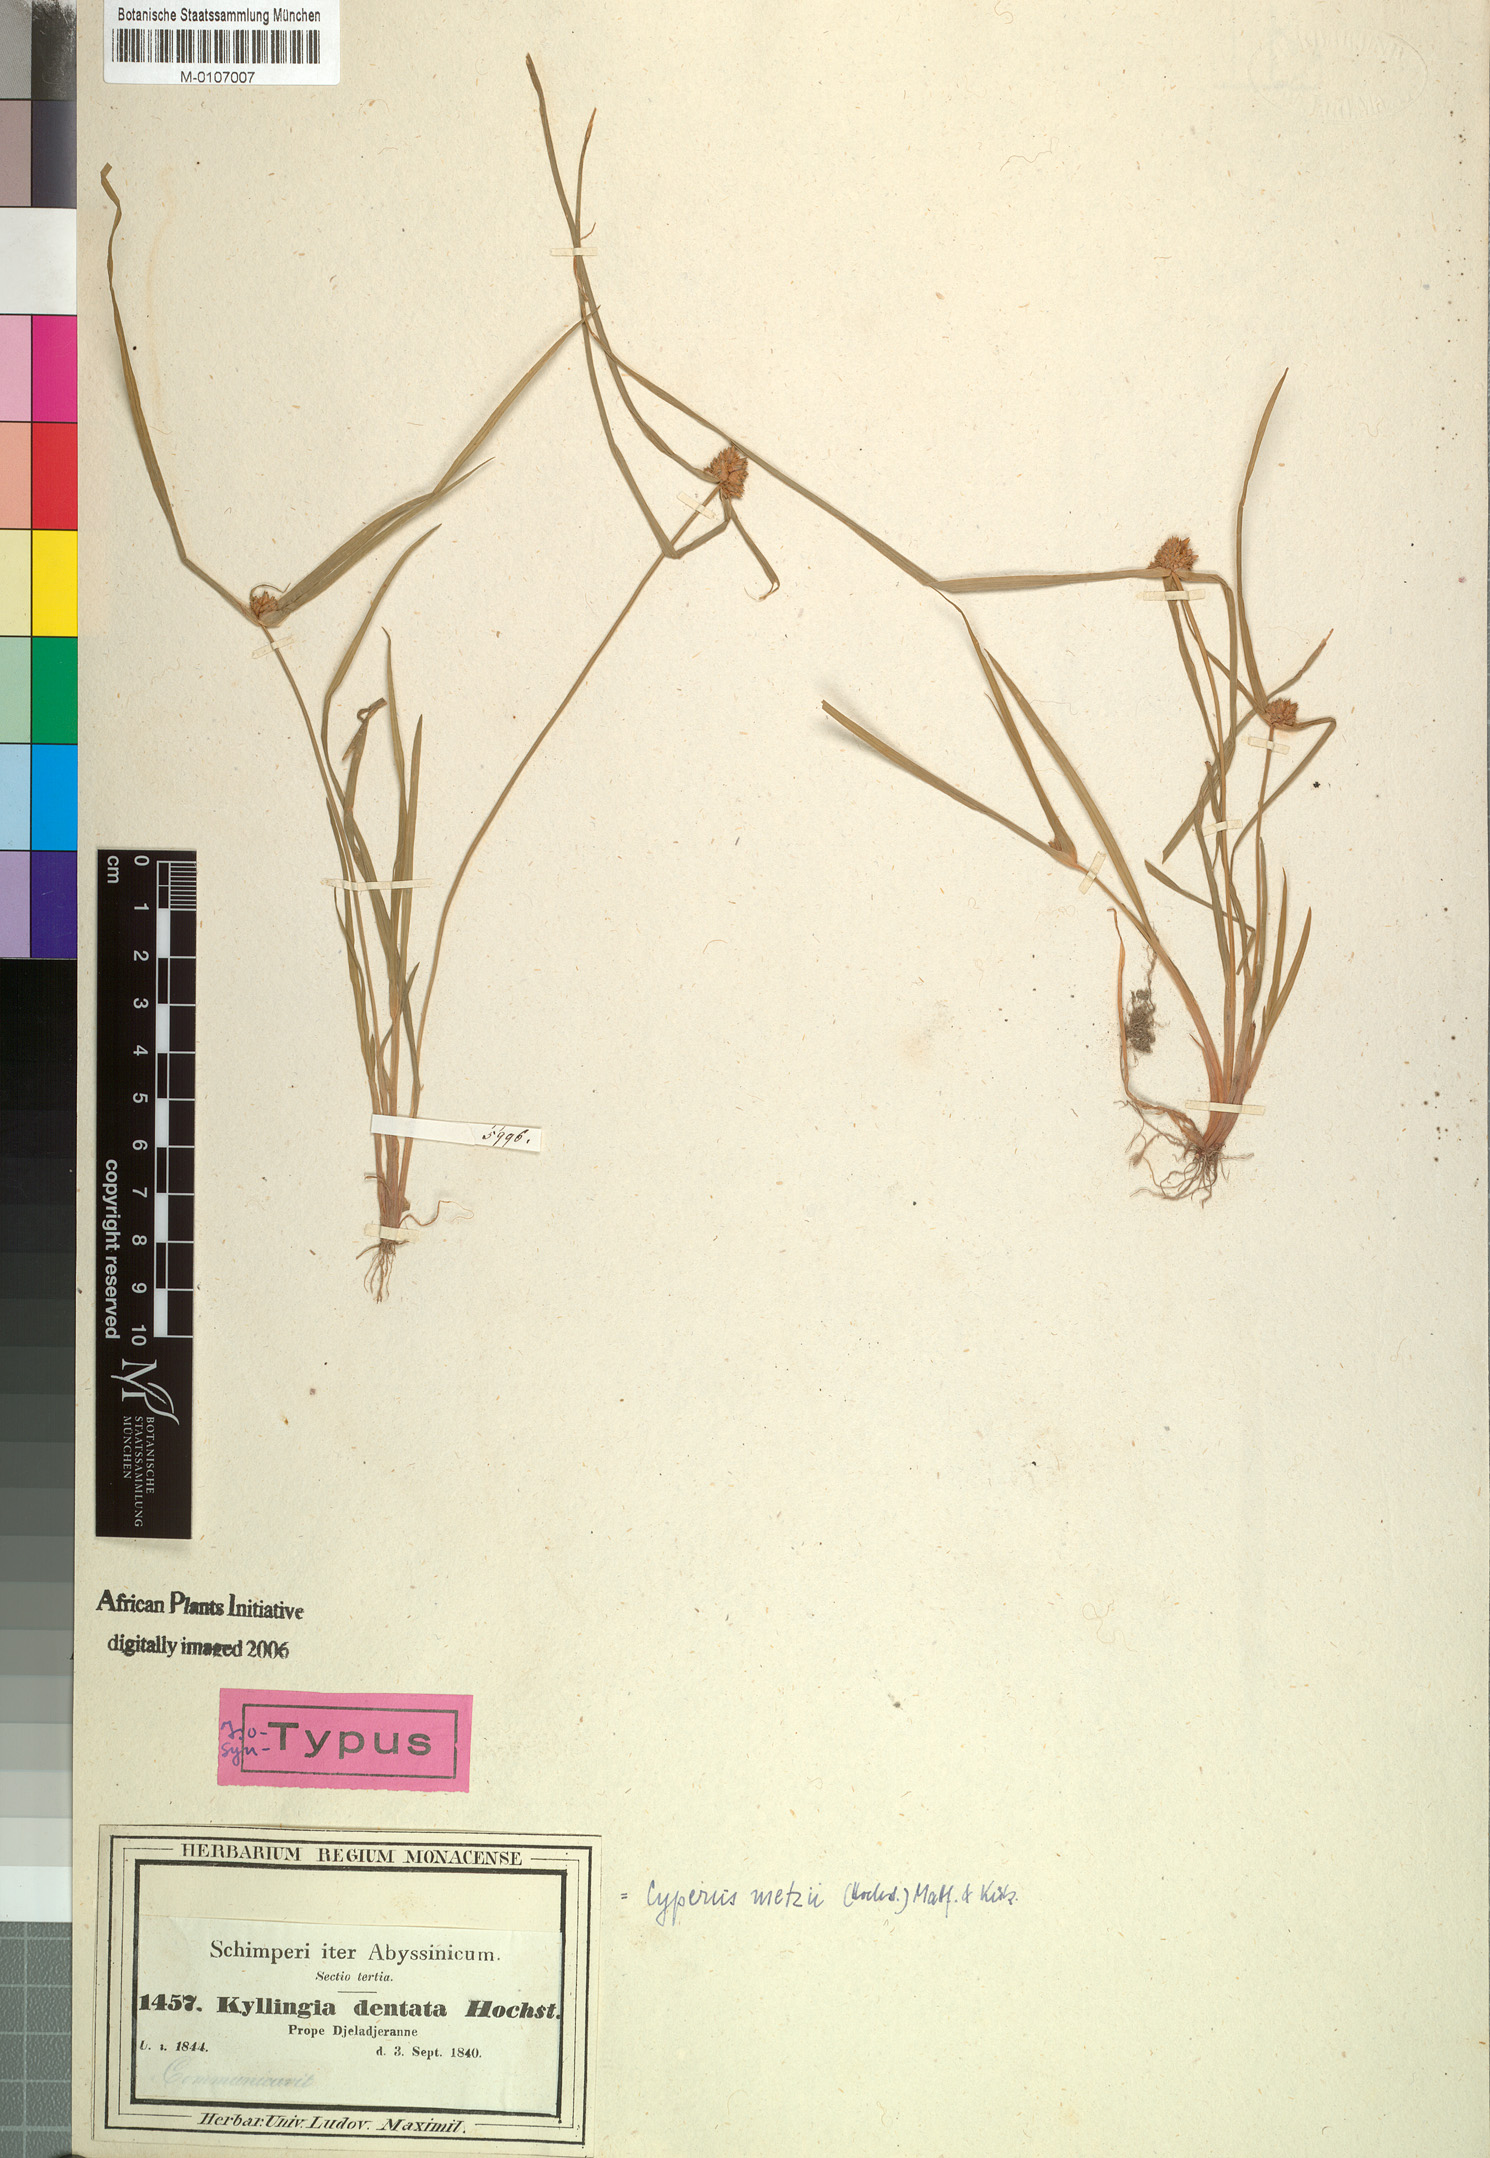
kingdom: Plantae
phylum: Tracheophyta
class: Liliopsida
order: Poales
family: Cyperaceae
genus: Cyperus
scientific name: Cyperus metzii
